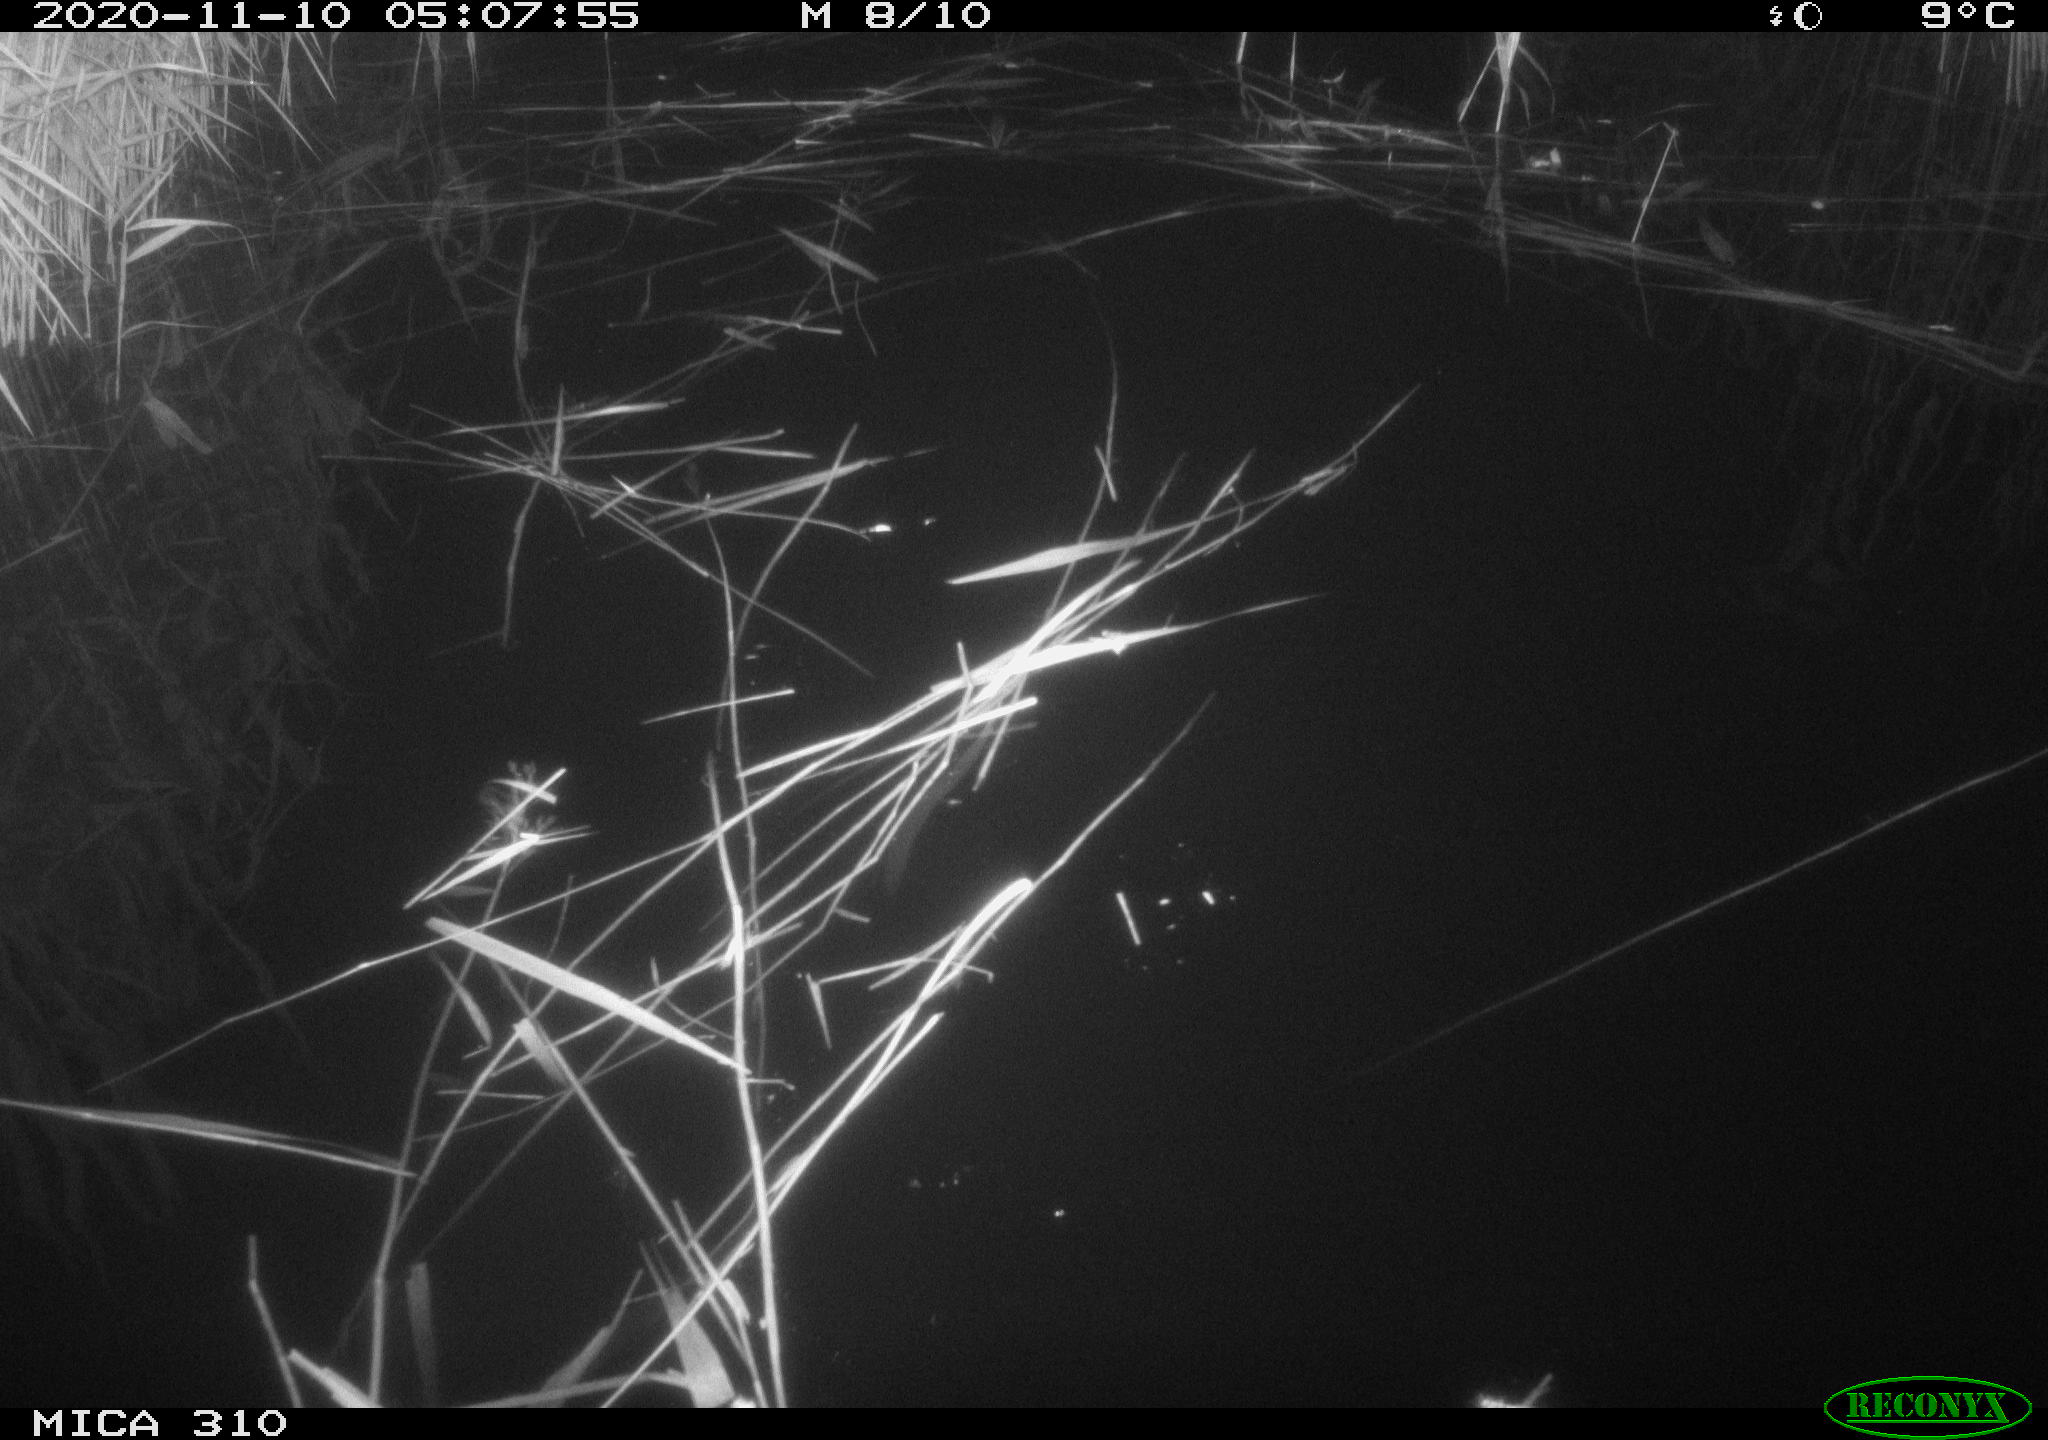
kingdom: Animalia
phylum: Chordata
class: Mammalia
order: Rodentia
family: Muridae
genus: Rattus
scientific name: Rattus norvegicus
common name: Brown rat
